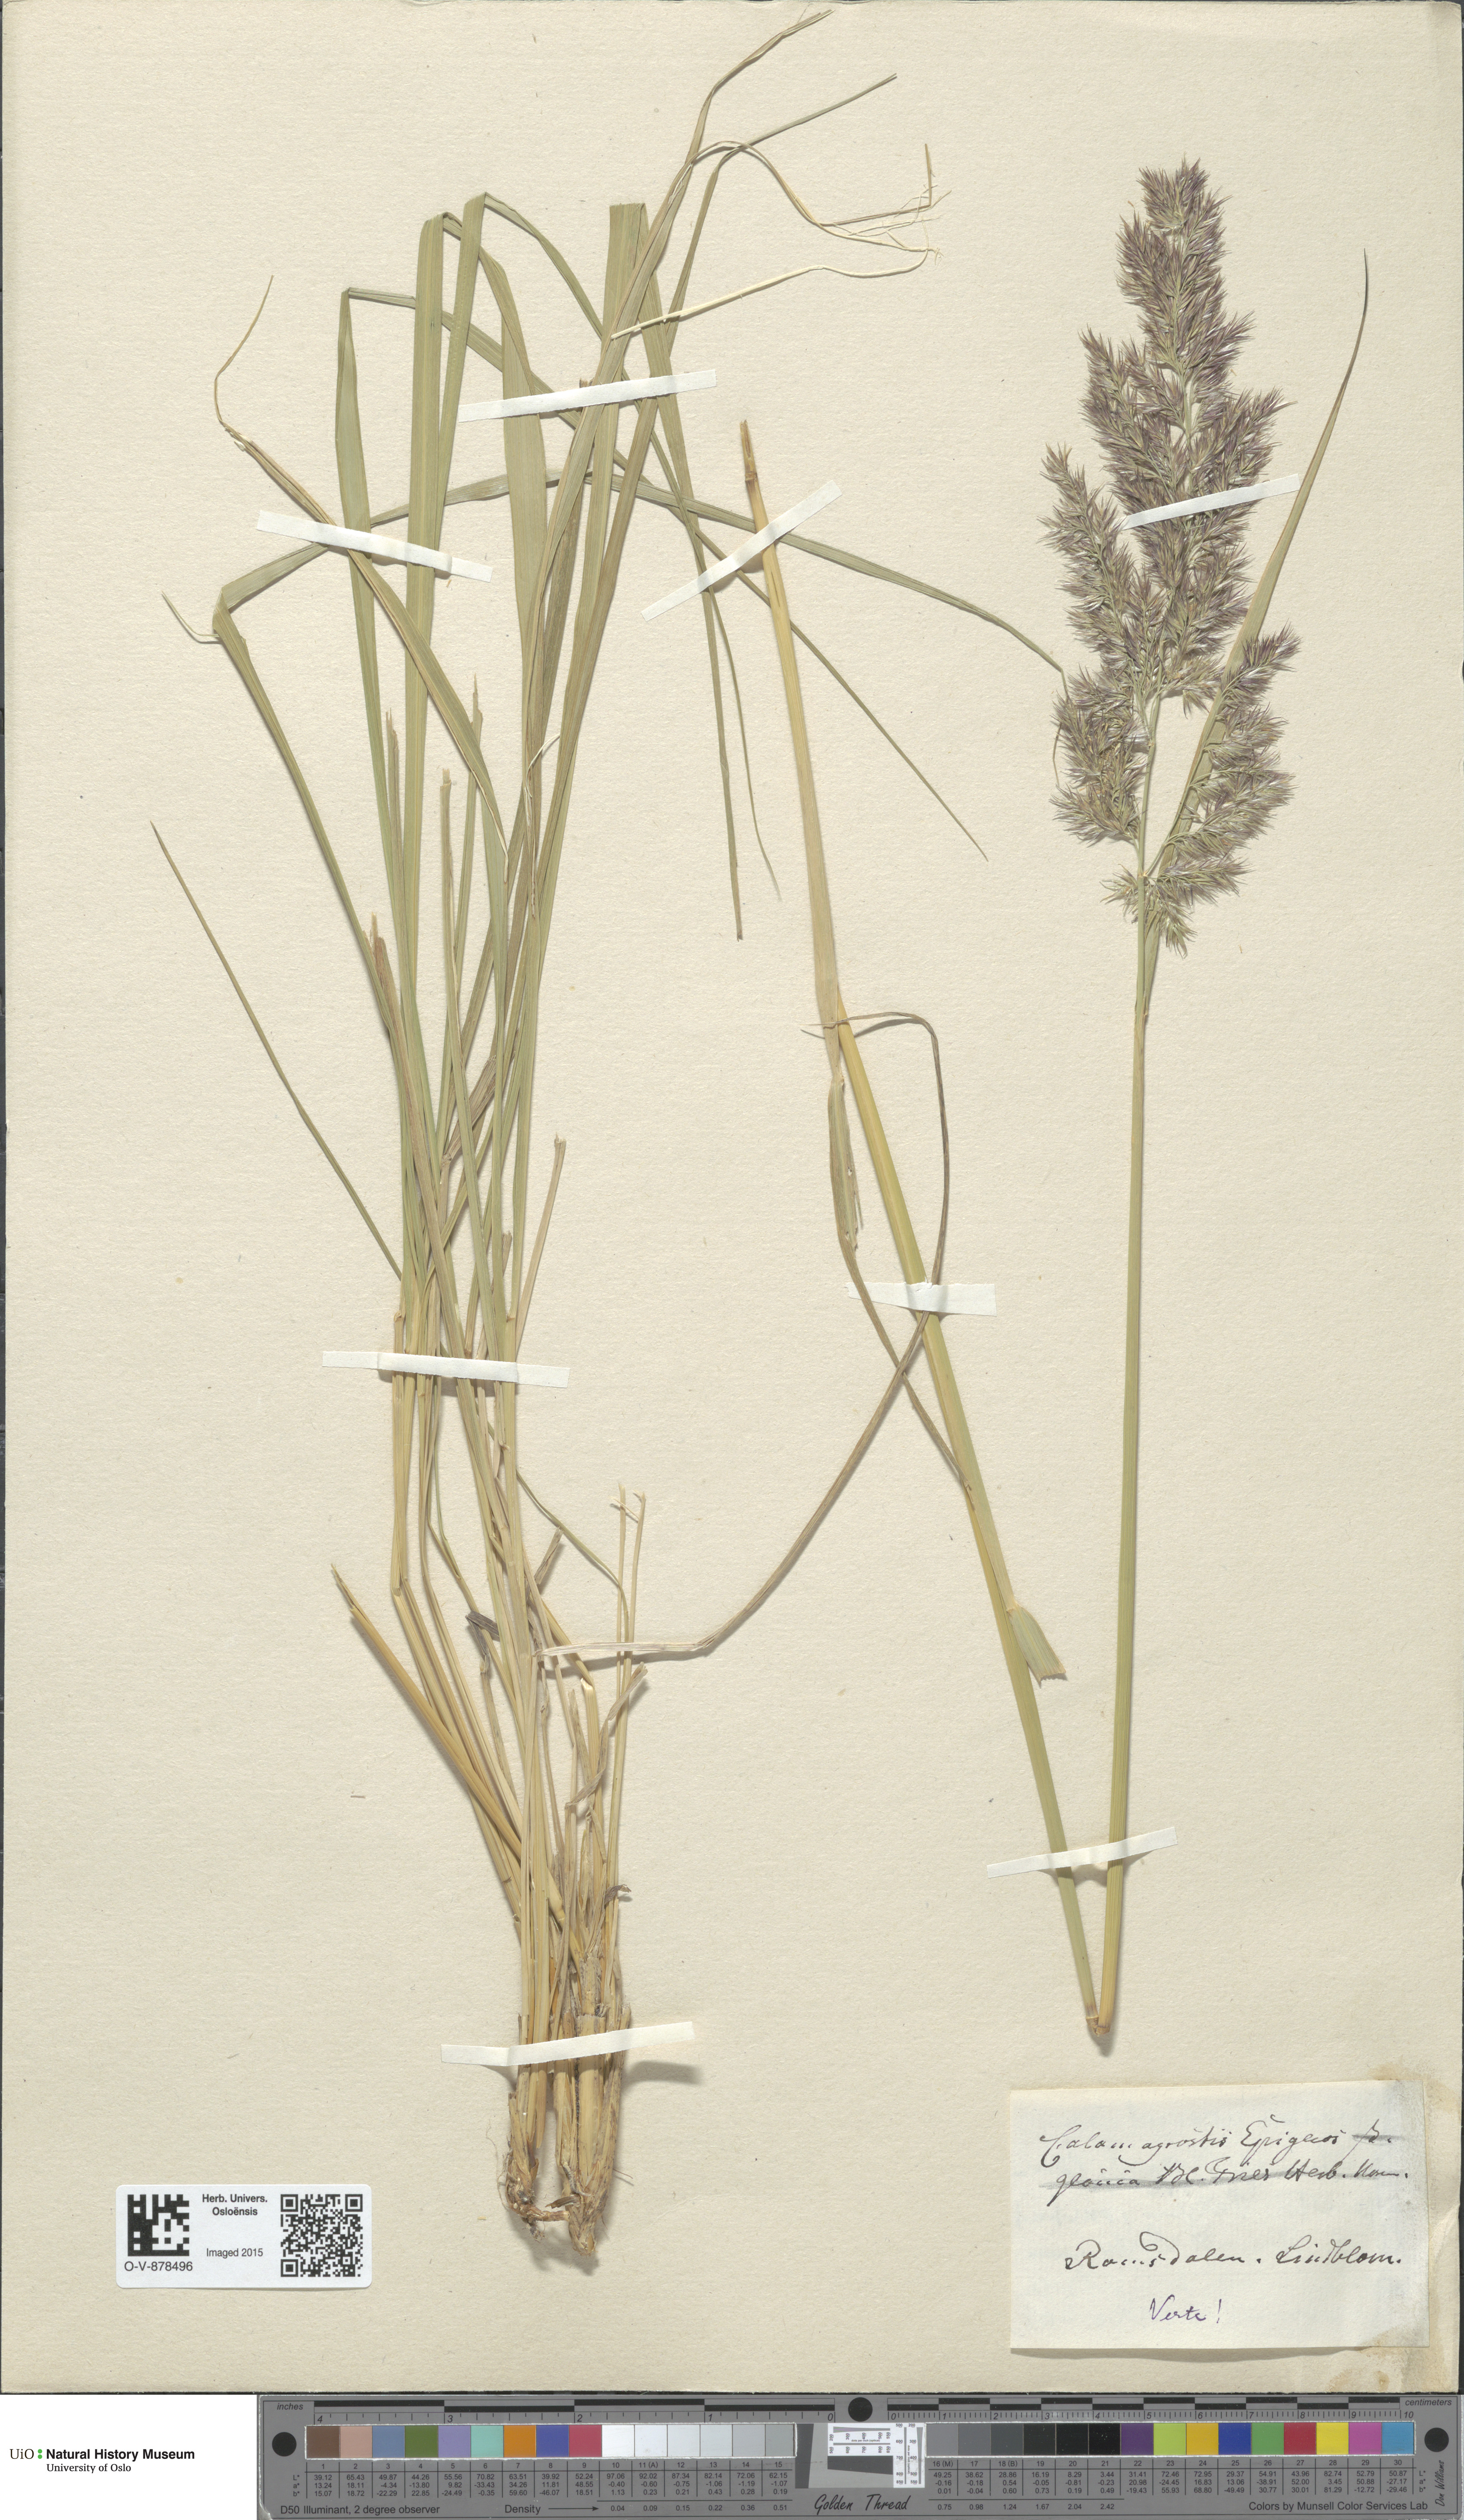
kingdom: Plantae
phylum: Tracheophyta
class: Liliopsida
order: Poales
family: Poaceae
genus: Calamagrostis
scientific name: Calamagrostis epigejos
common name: Wood small-reed
